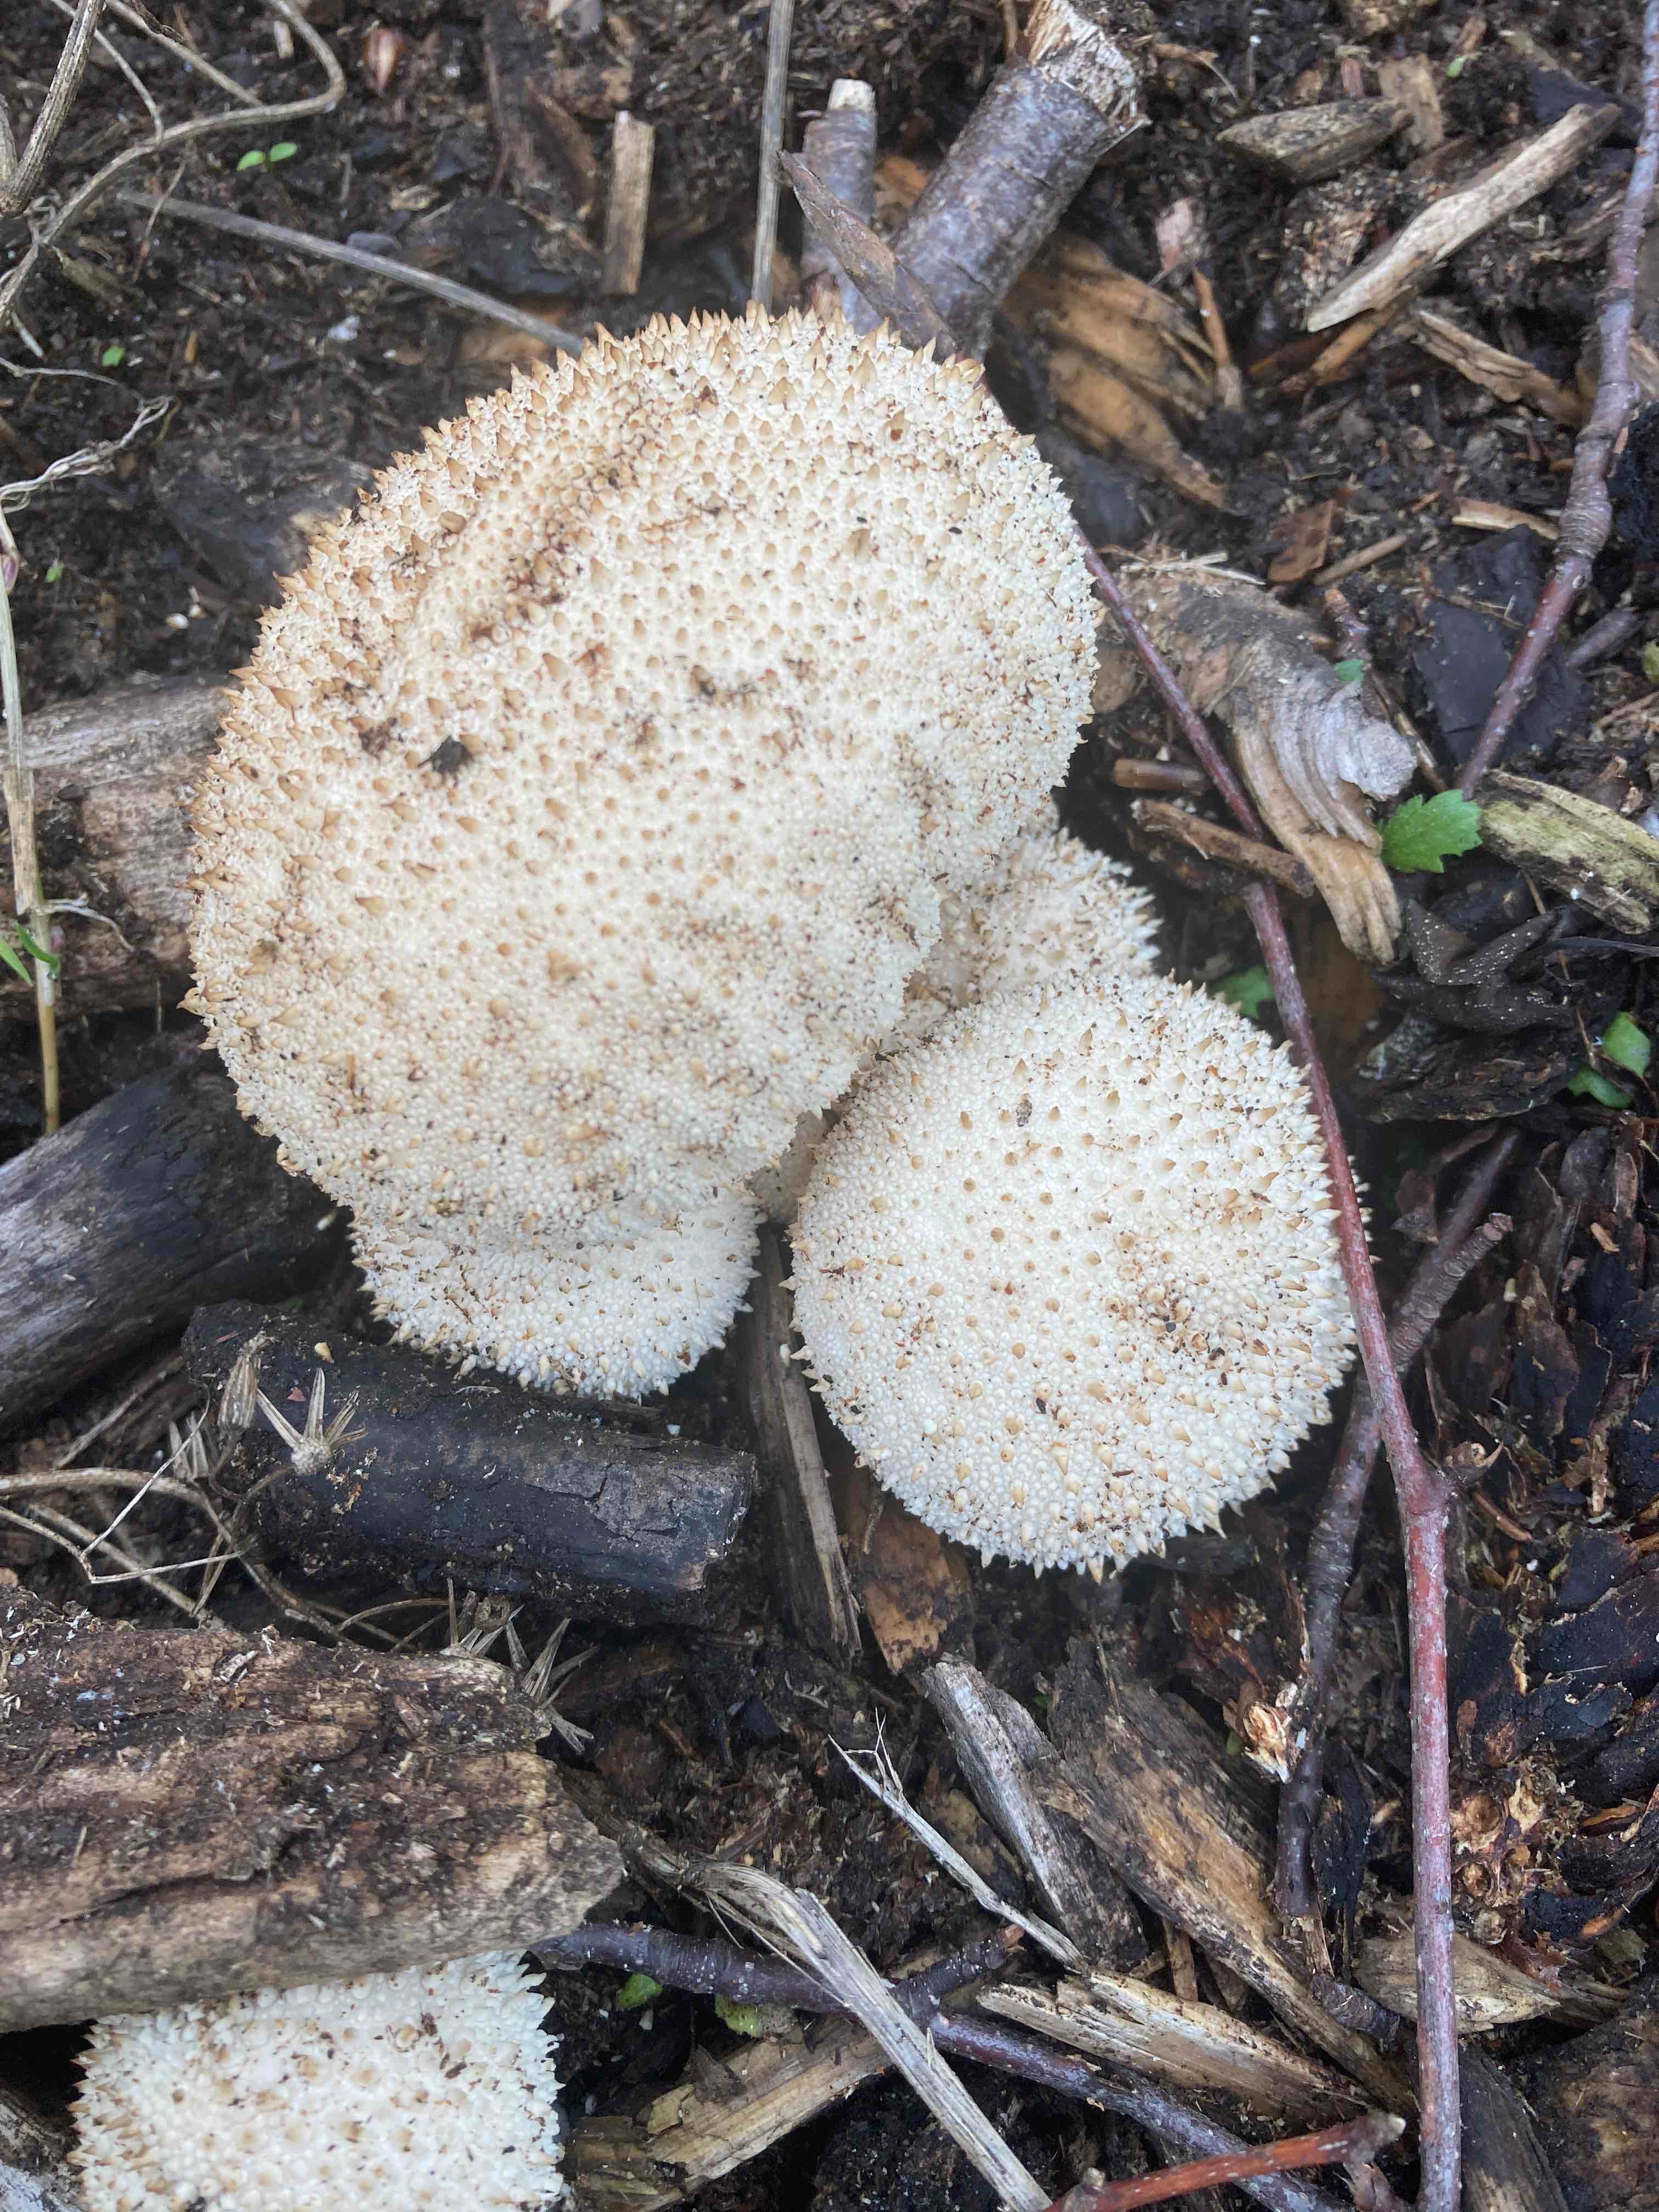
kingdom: Fungi
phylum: Basidiomycota
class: Agaricomycetes
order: Agaricales
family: Lycoperdaceae
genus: Lycoperdon
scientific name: Lycoperdon perlatum
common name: krystal-støvbold
